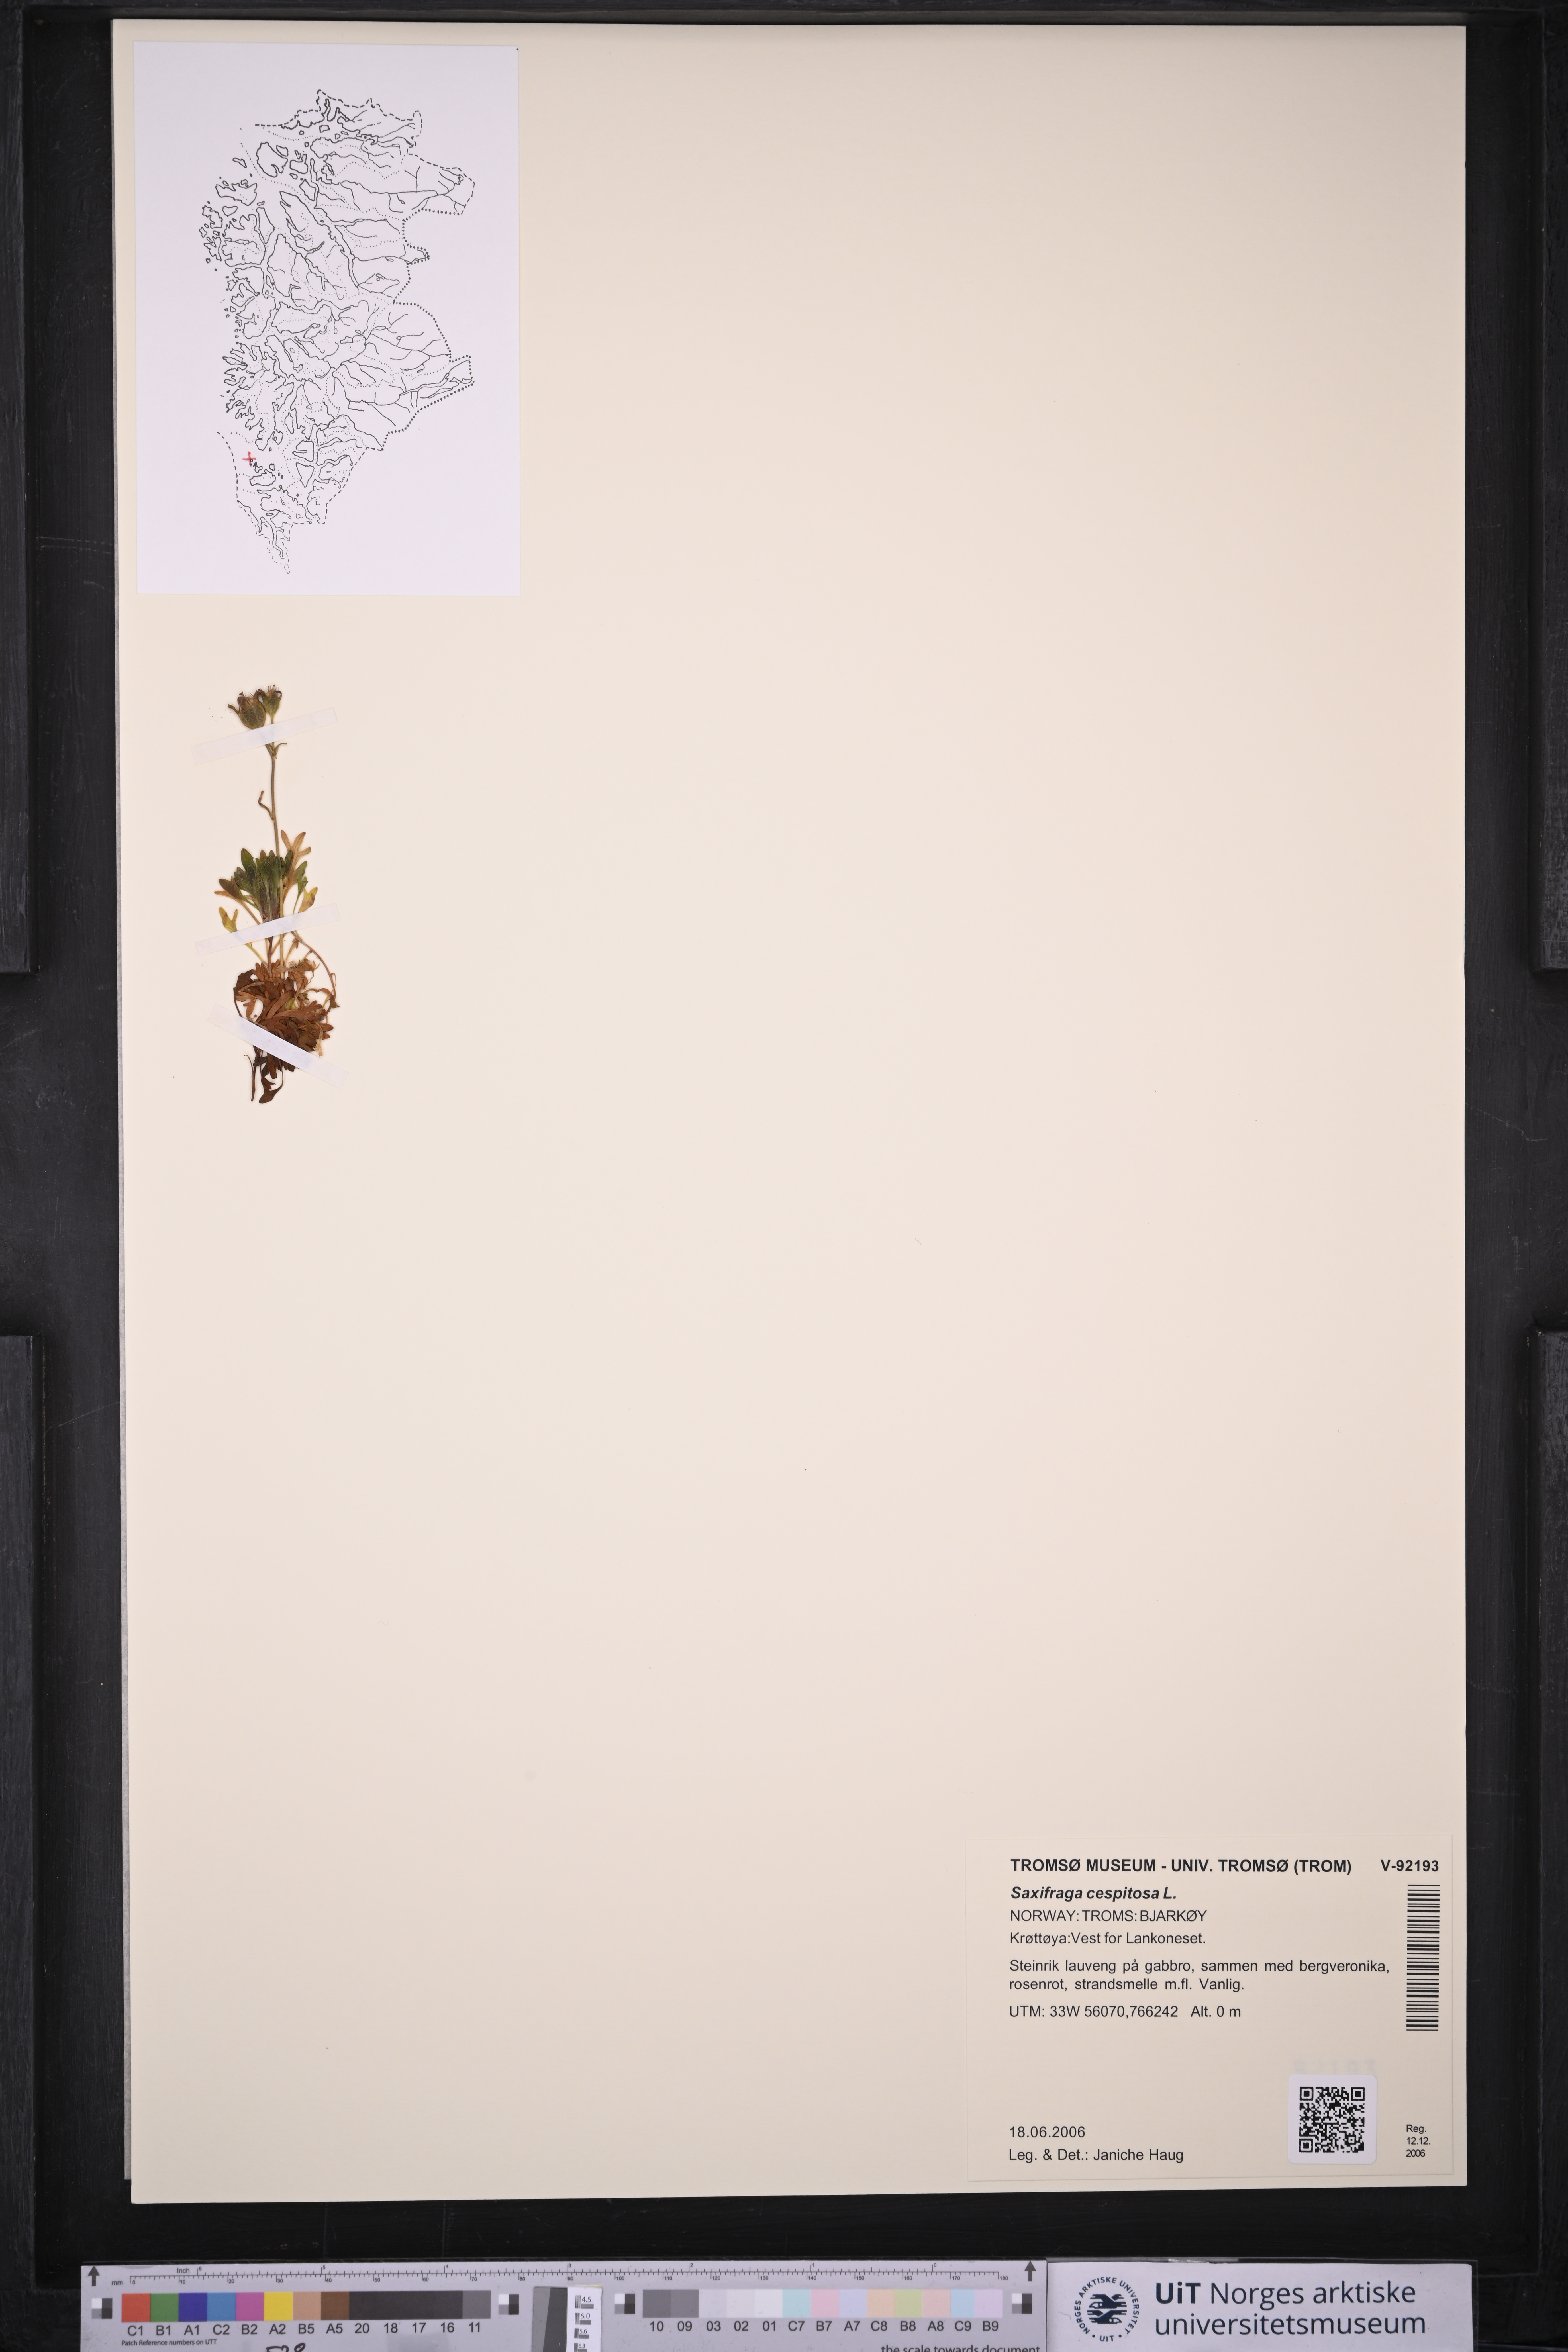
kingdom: Plantae
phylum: Tracheophyta
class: Magnoliopsida
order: Saxifragales
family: Saxifragaceae
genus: Saxifraga
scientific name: Saxifraga cespitosa
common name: Tufted saxifrage
